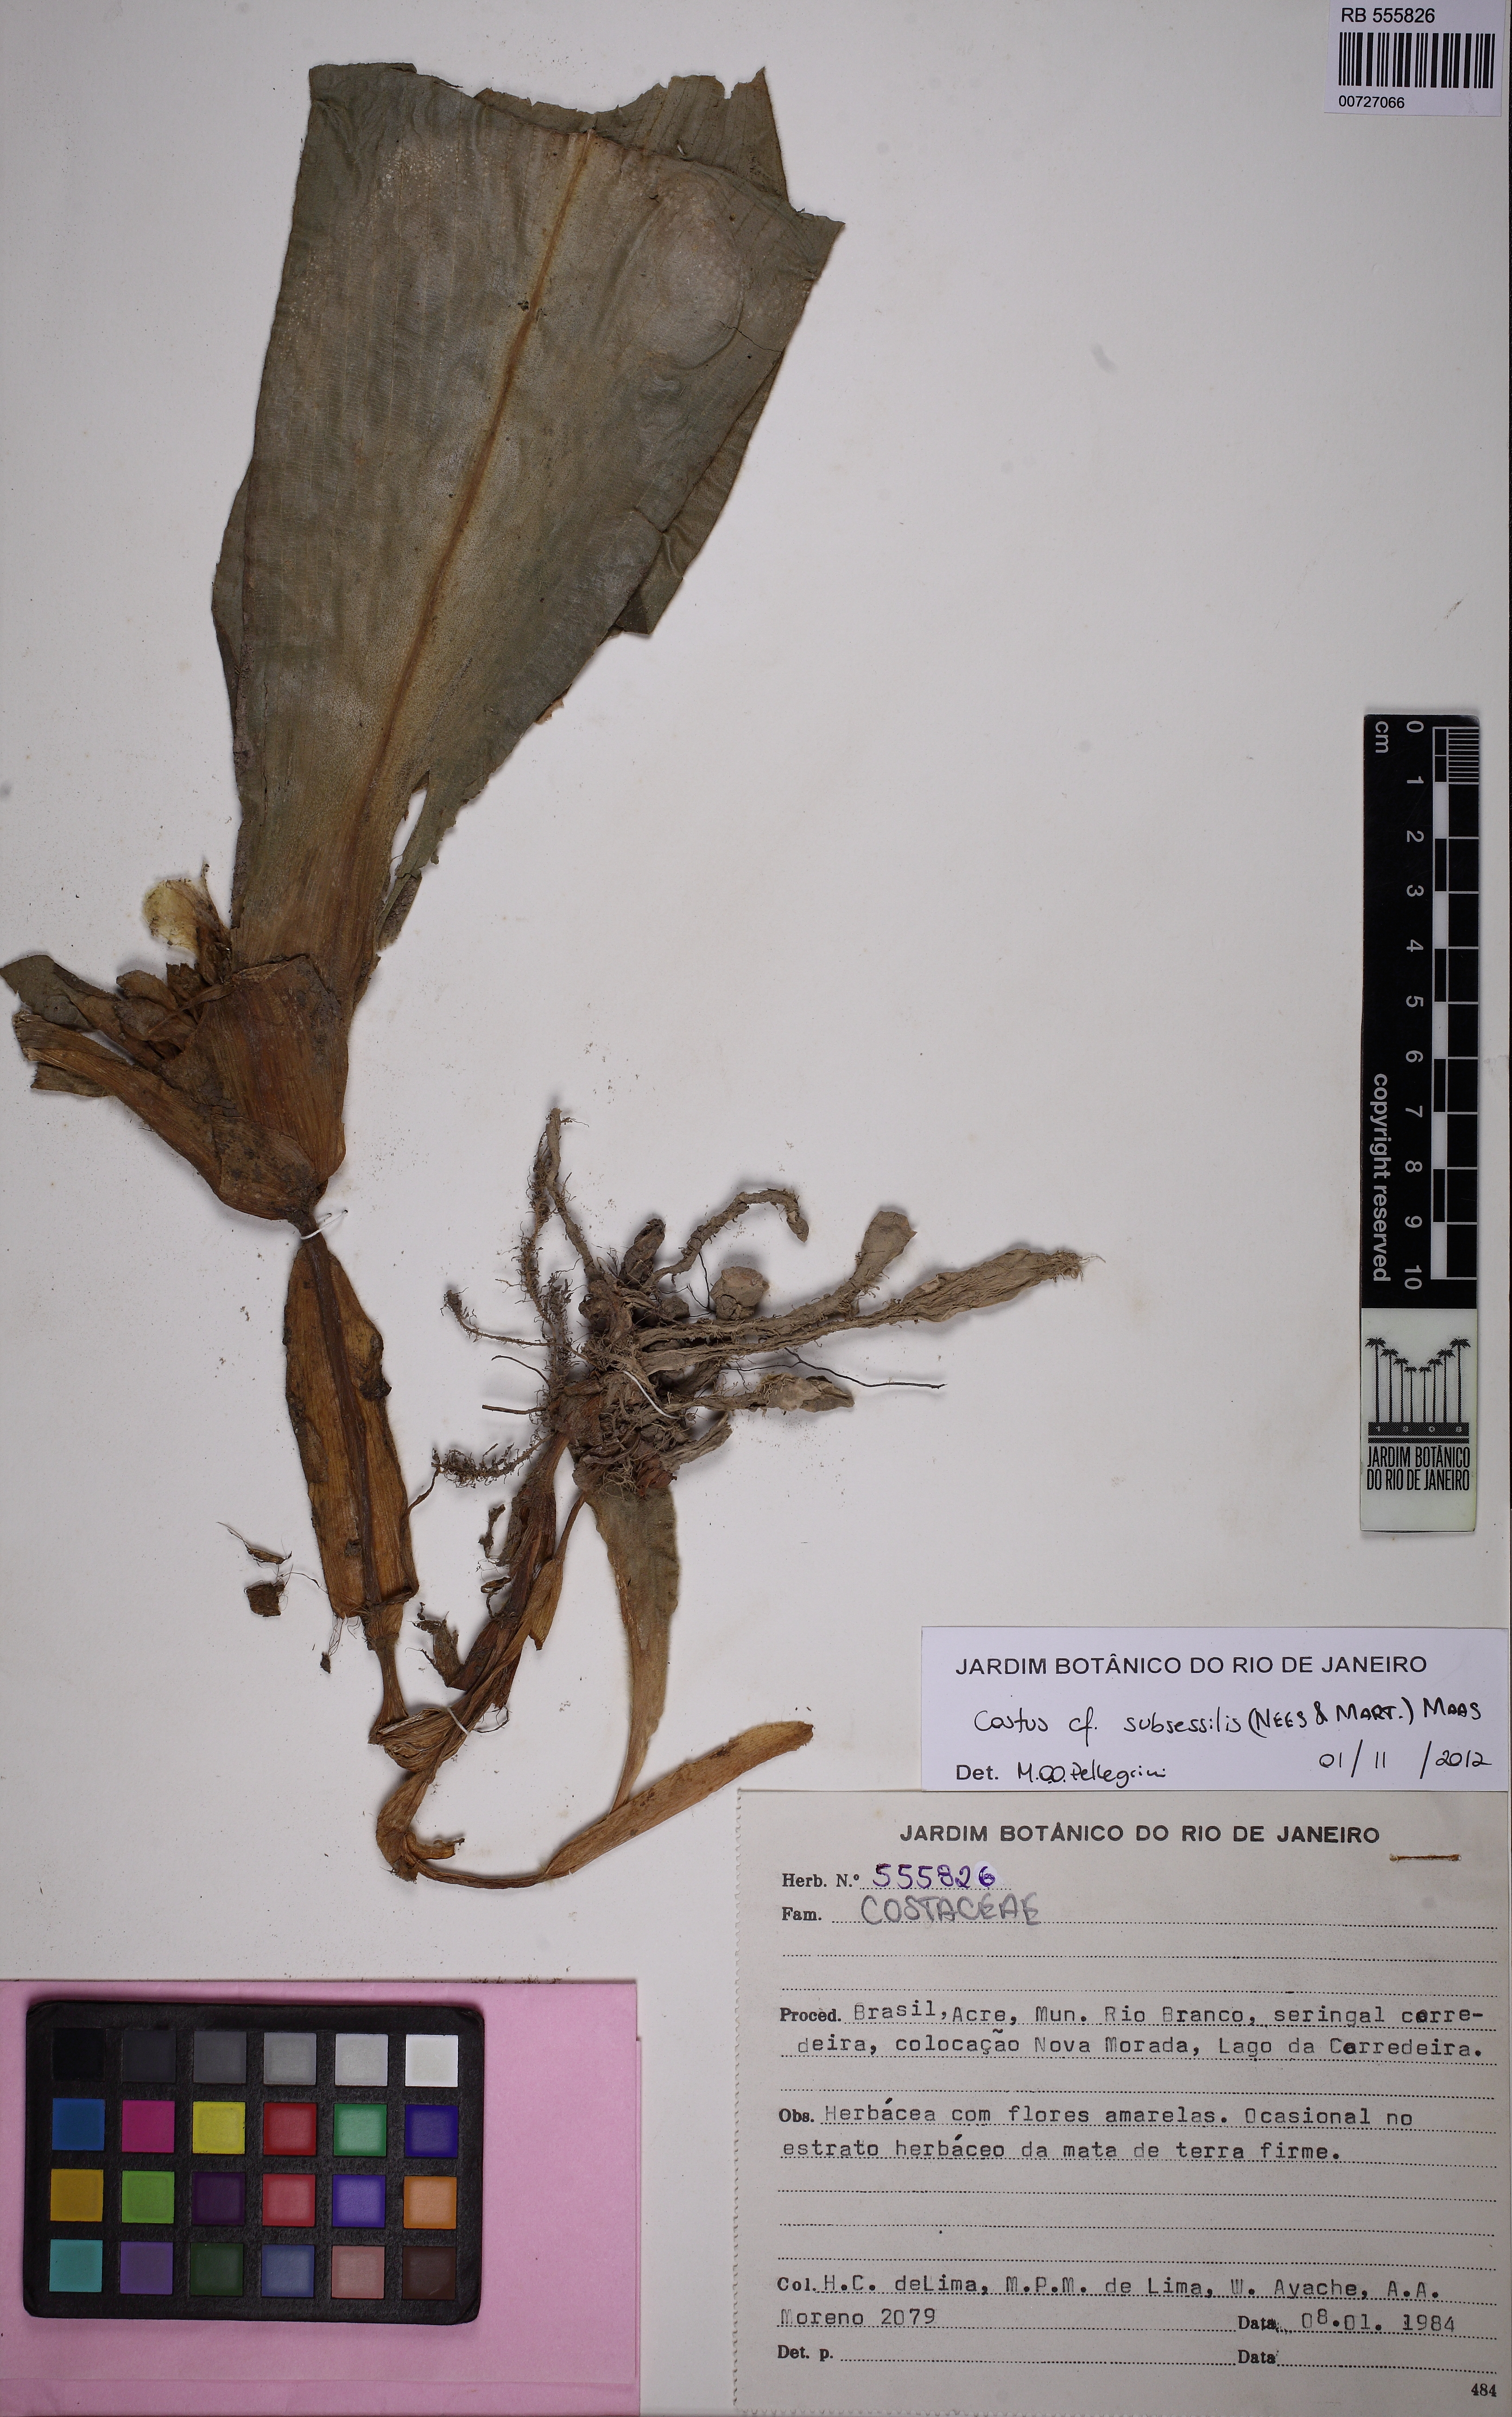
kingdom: Plantae
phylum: Tracheophyta
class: Liliopsida
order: Zingiberales
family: Costaceae
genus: Chamaecostus
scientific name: Chamaecostus acaulis
